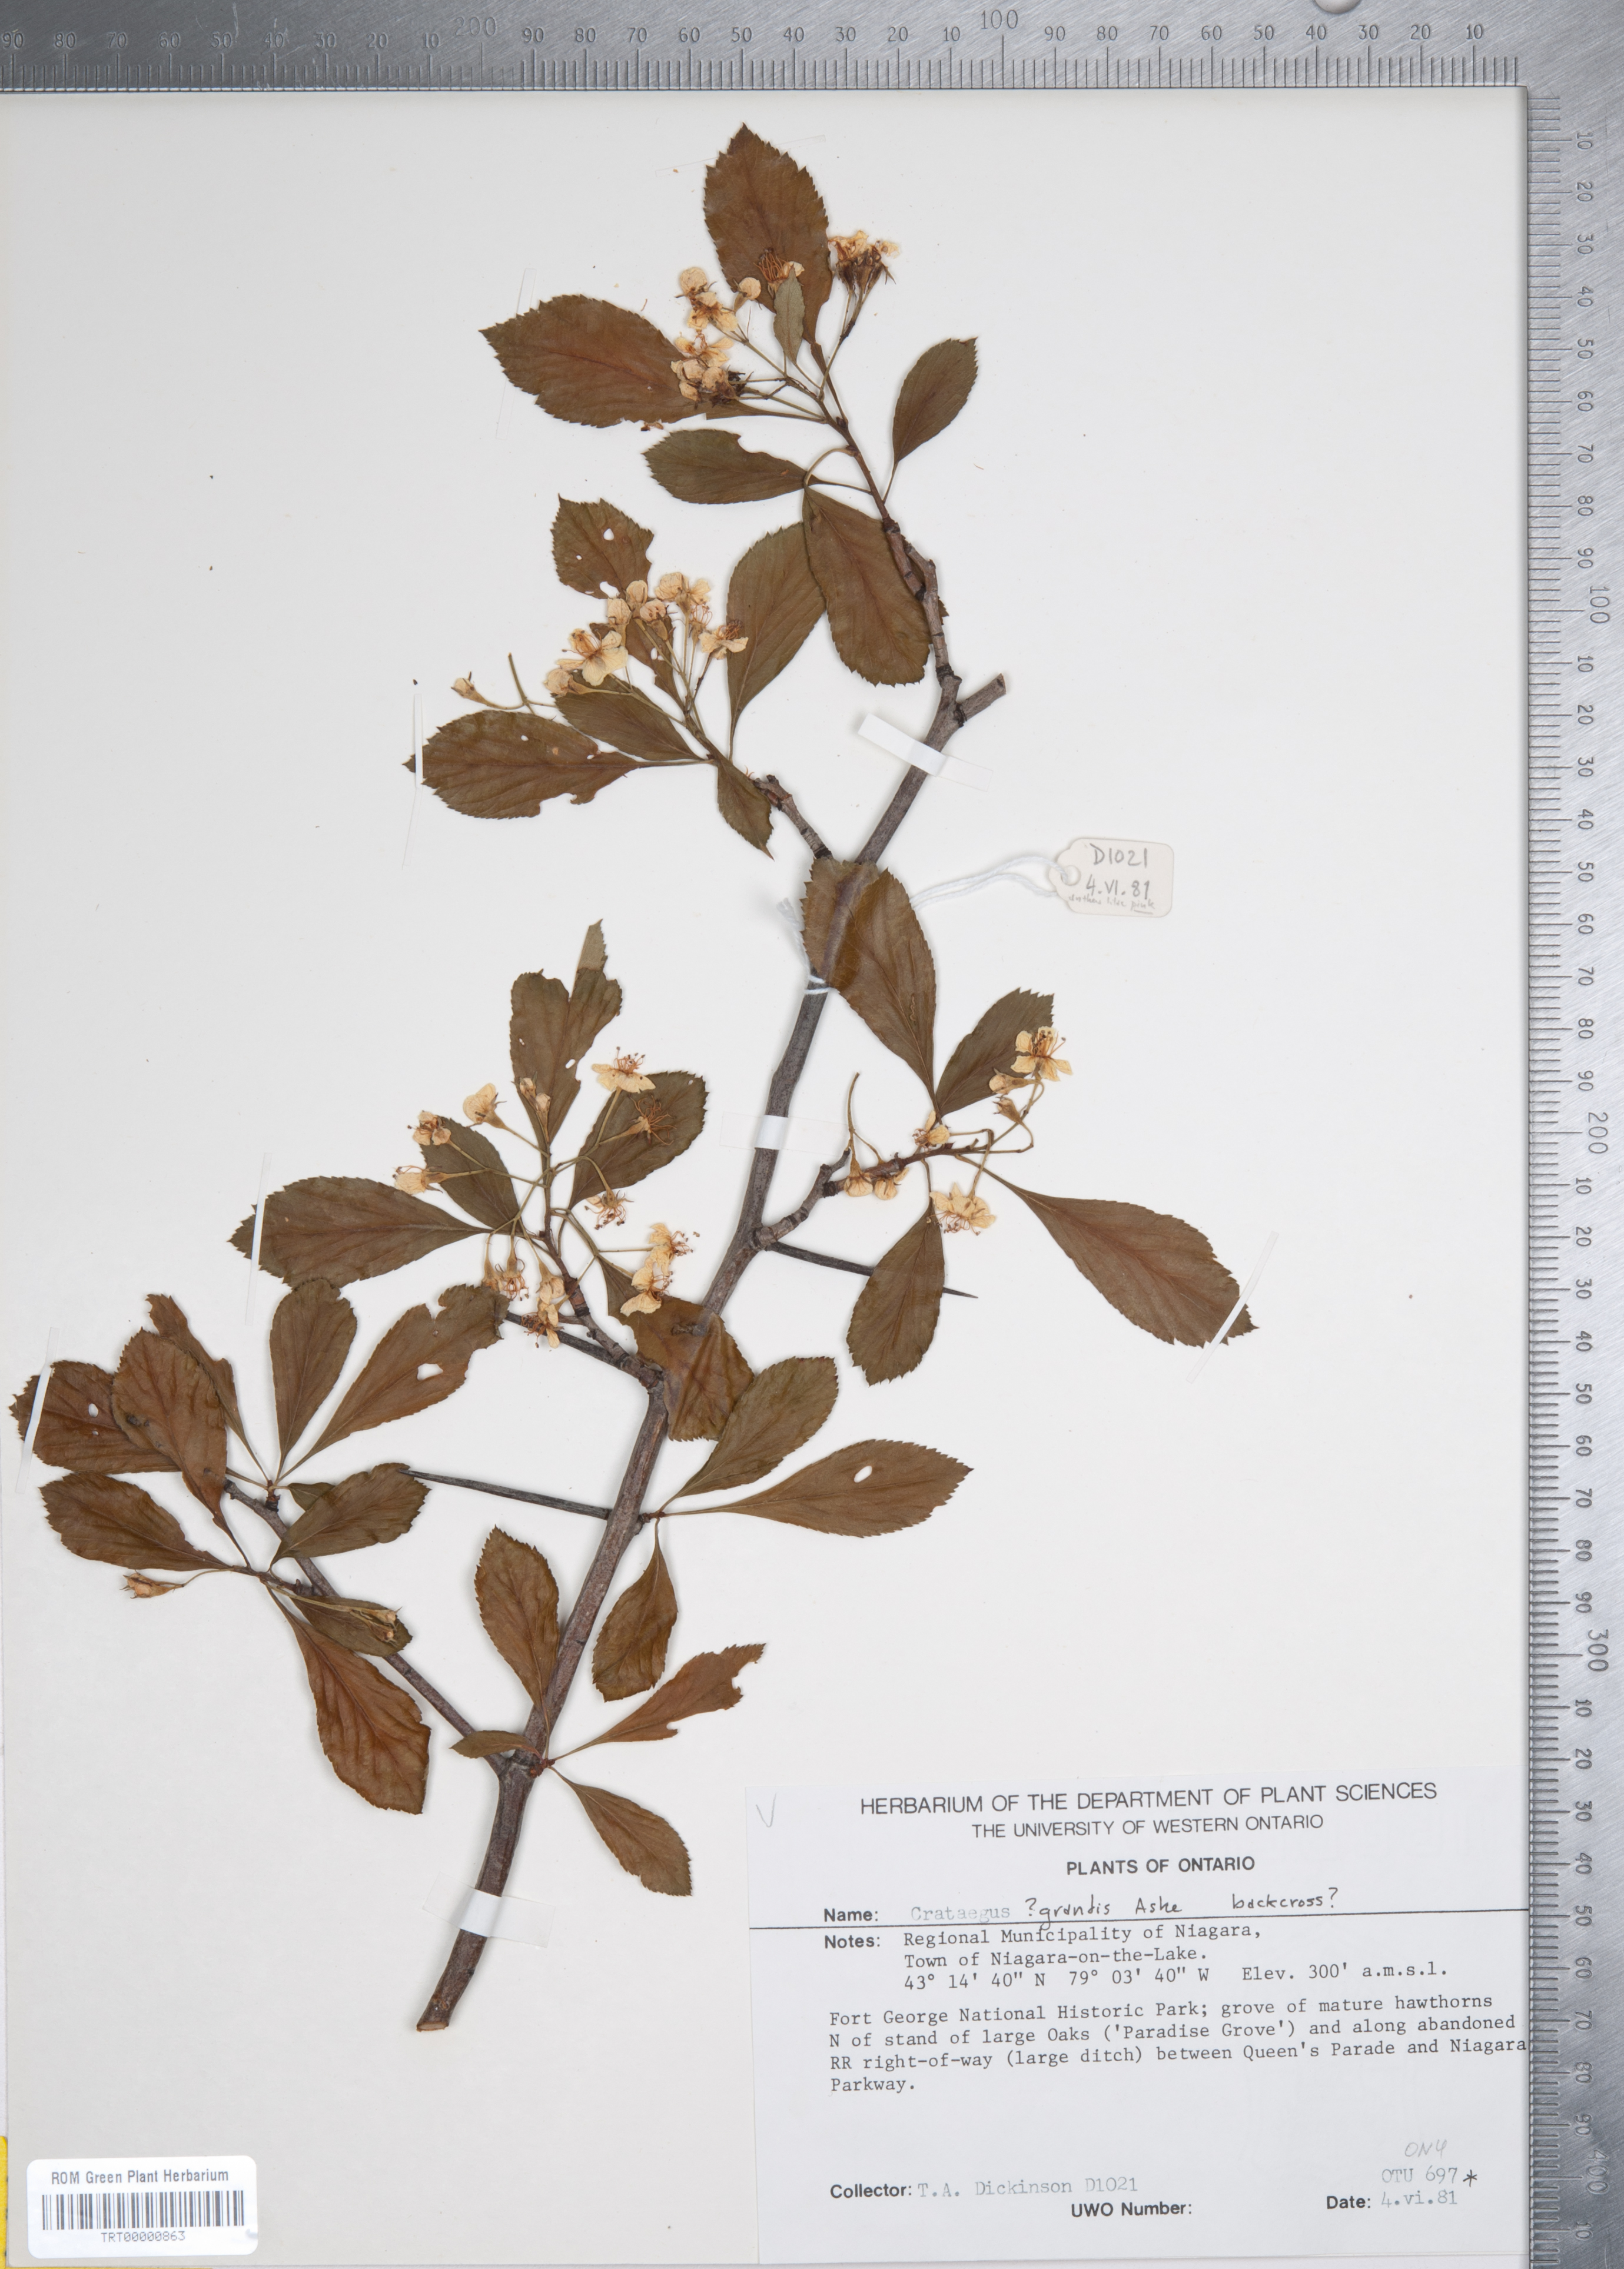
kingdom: Plantae
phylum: Tracheophyta
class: Magnoliopsida
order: Rosales
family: Rosaceae
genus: Crataegus
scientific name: Crataegus disperma
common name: Spreading hawthorn
